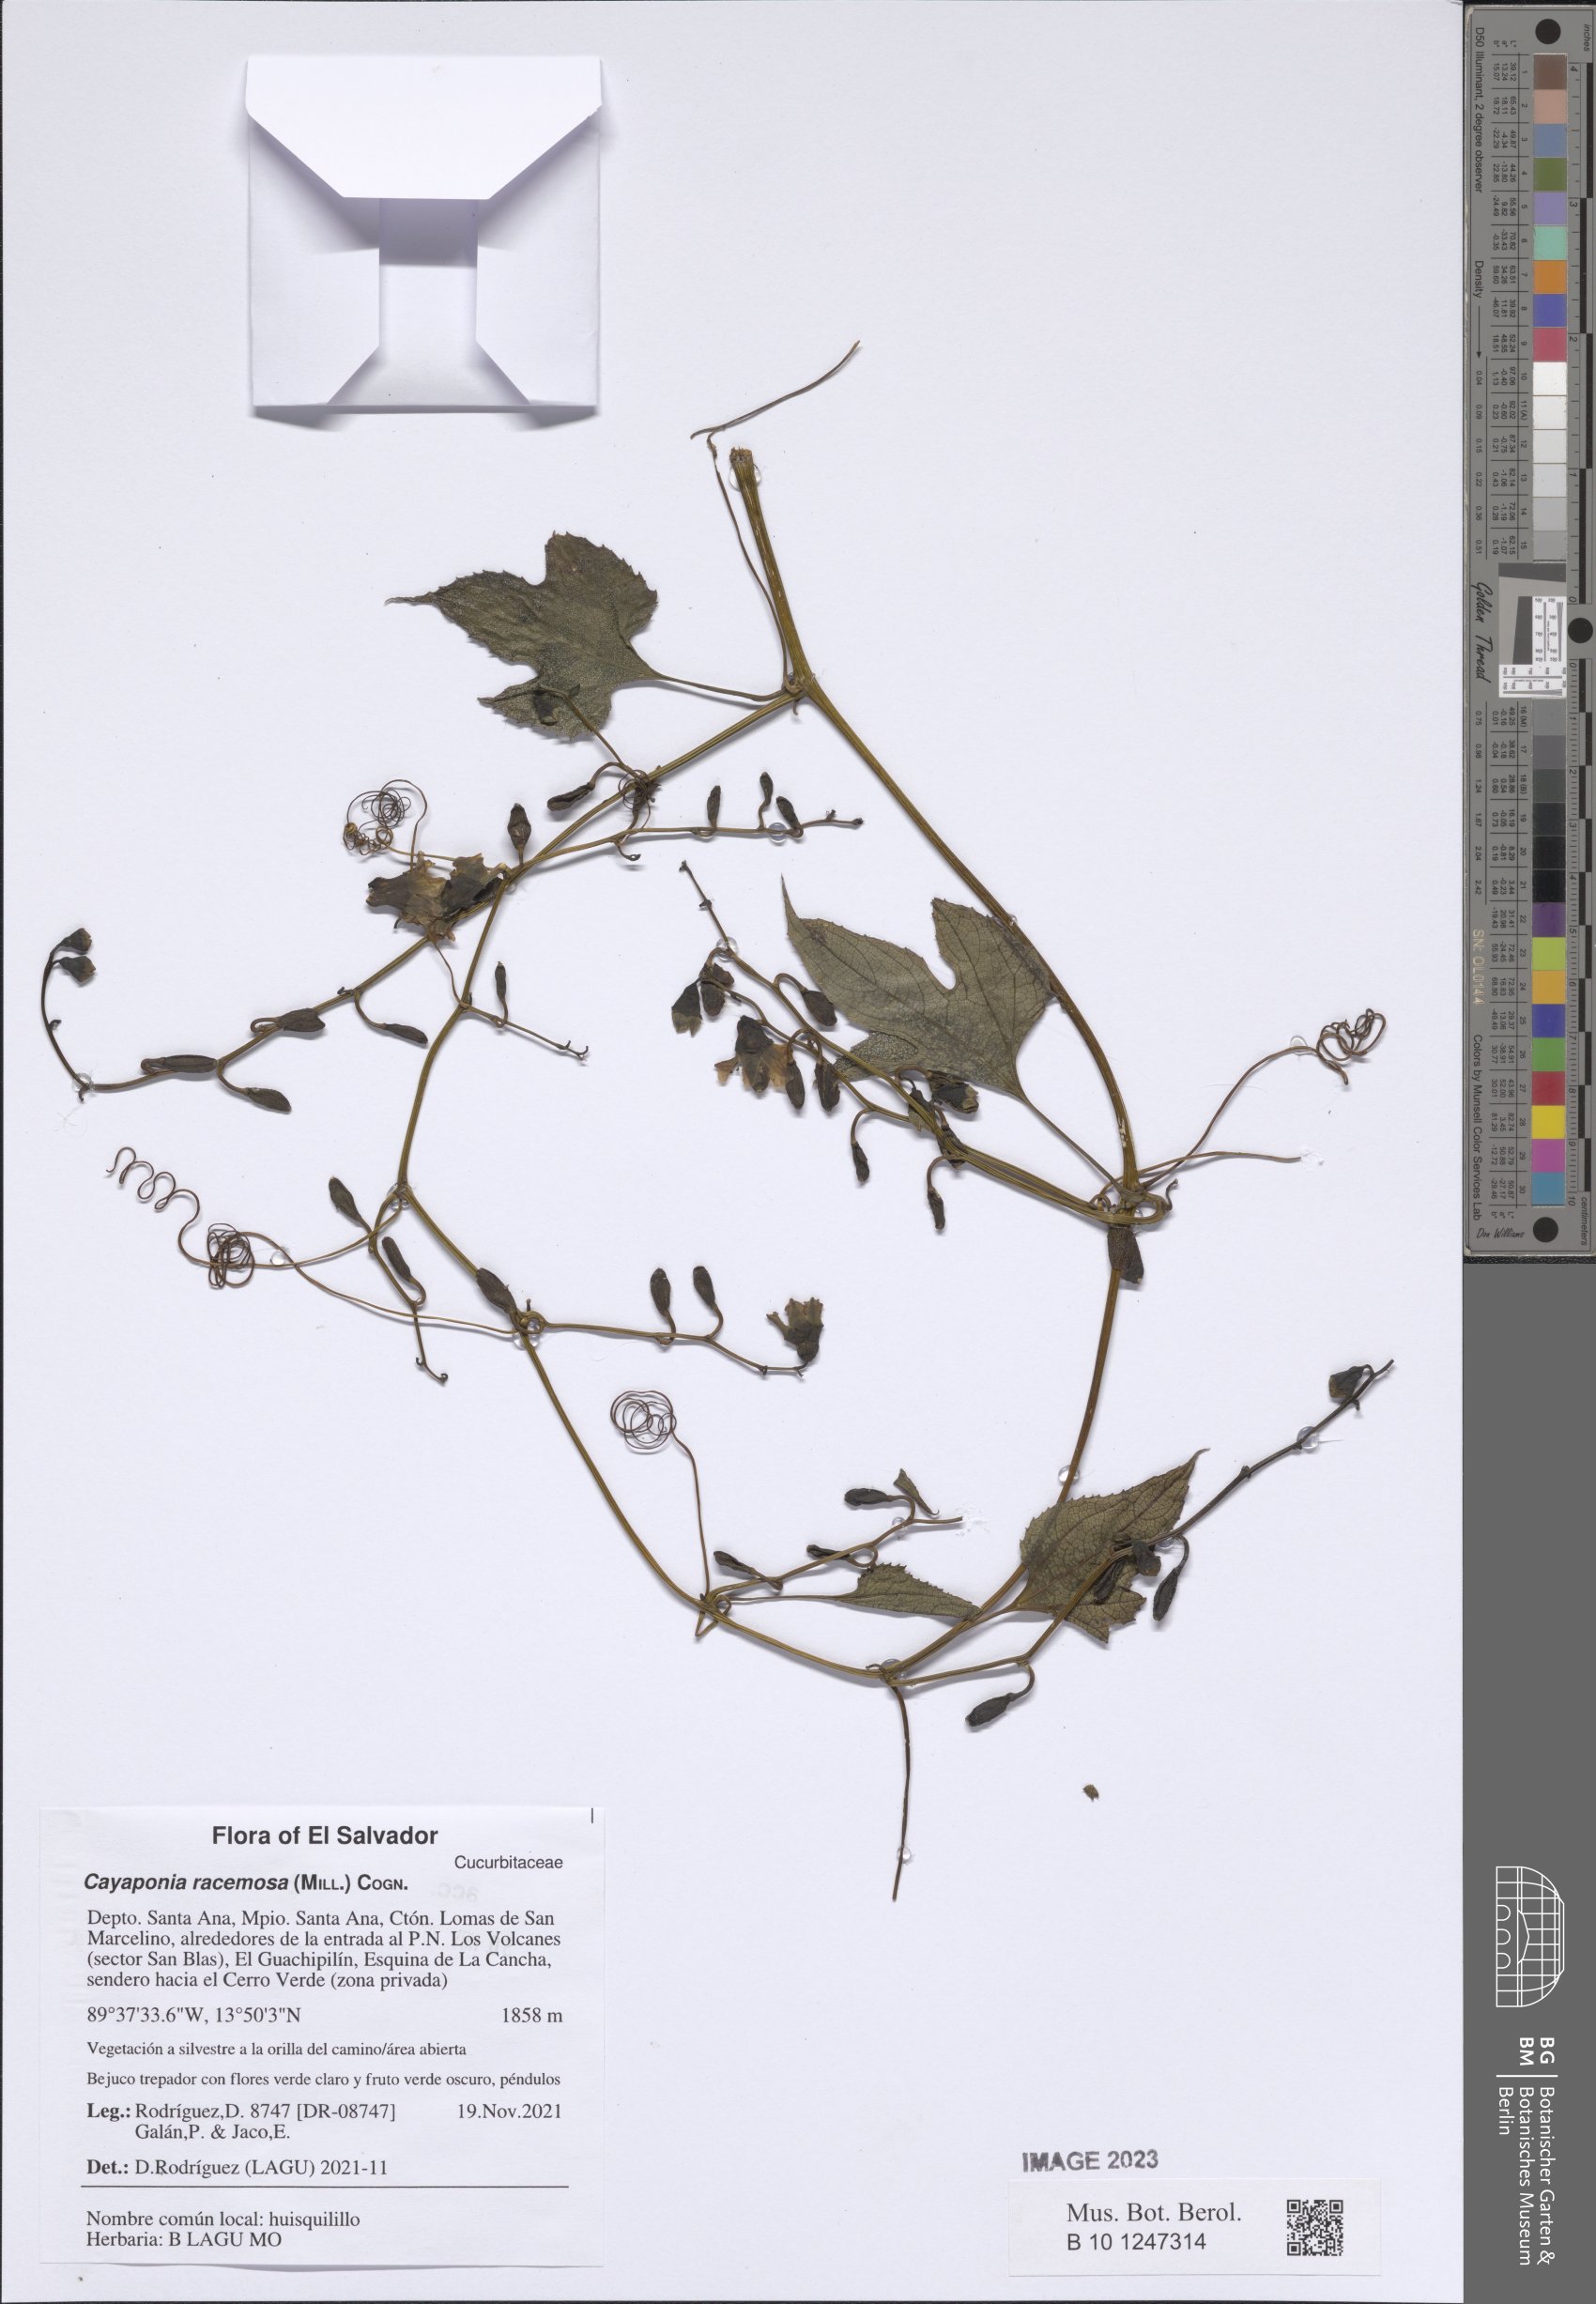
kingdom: Plantae
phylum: Tracheophyta
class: Magnoliopsida
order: Cucurbitales
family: Cucurbitaceae
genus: Cayaponia
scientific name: Cayaponia racemosa
